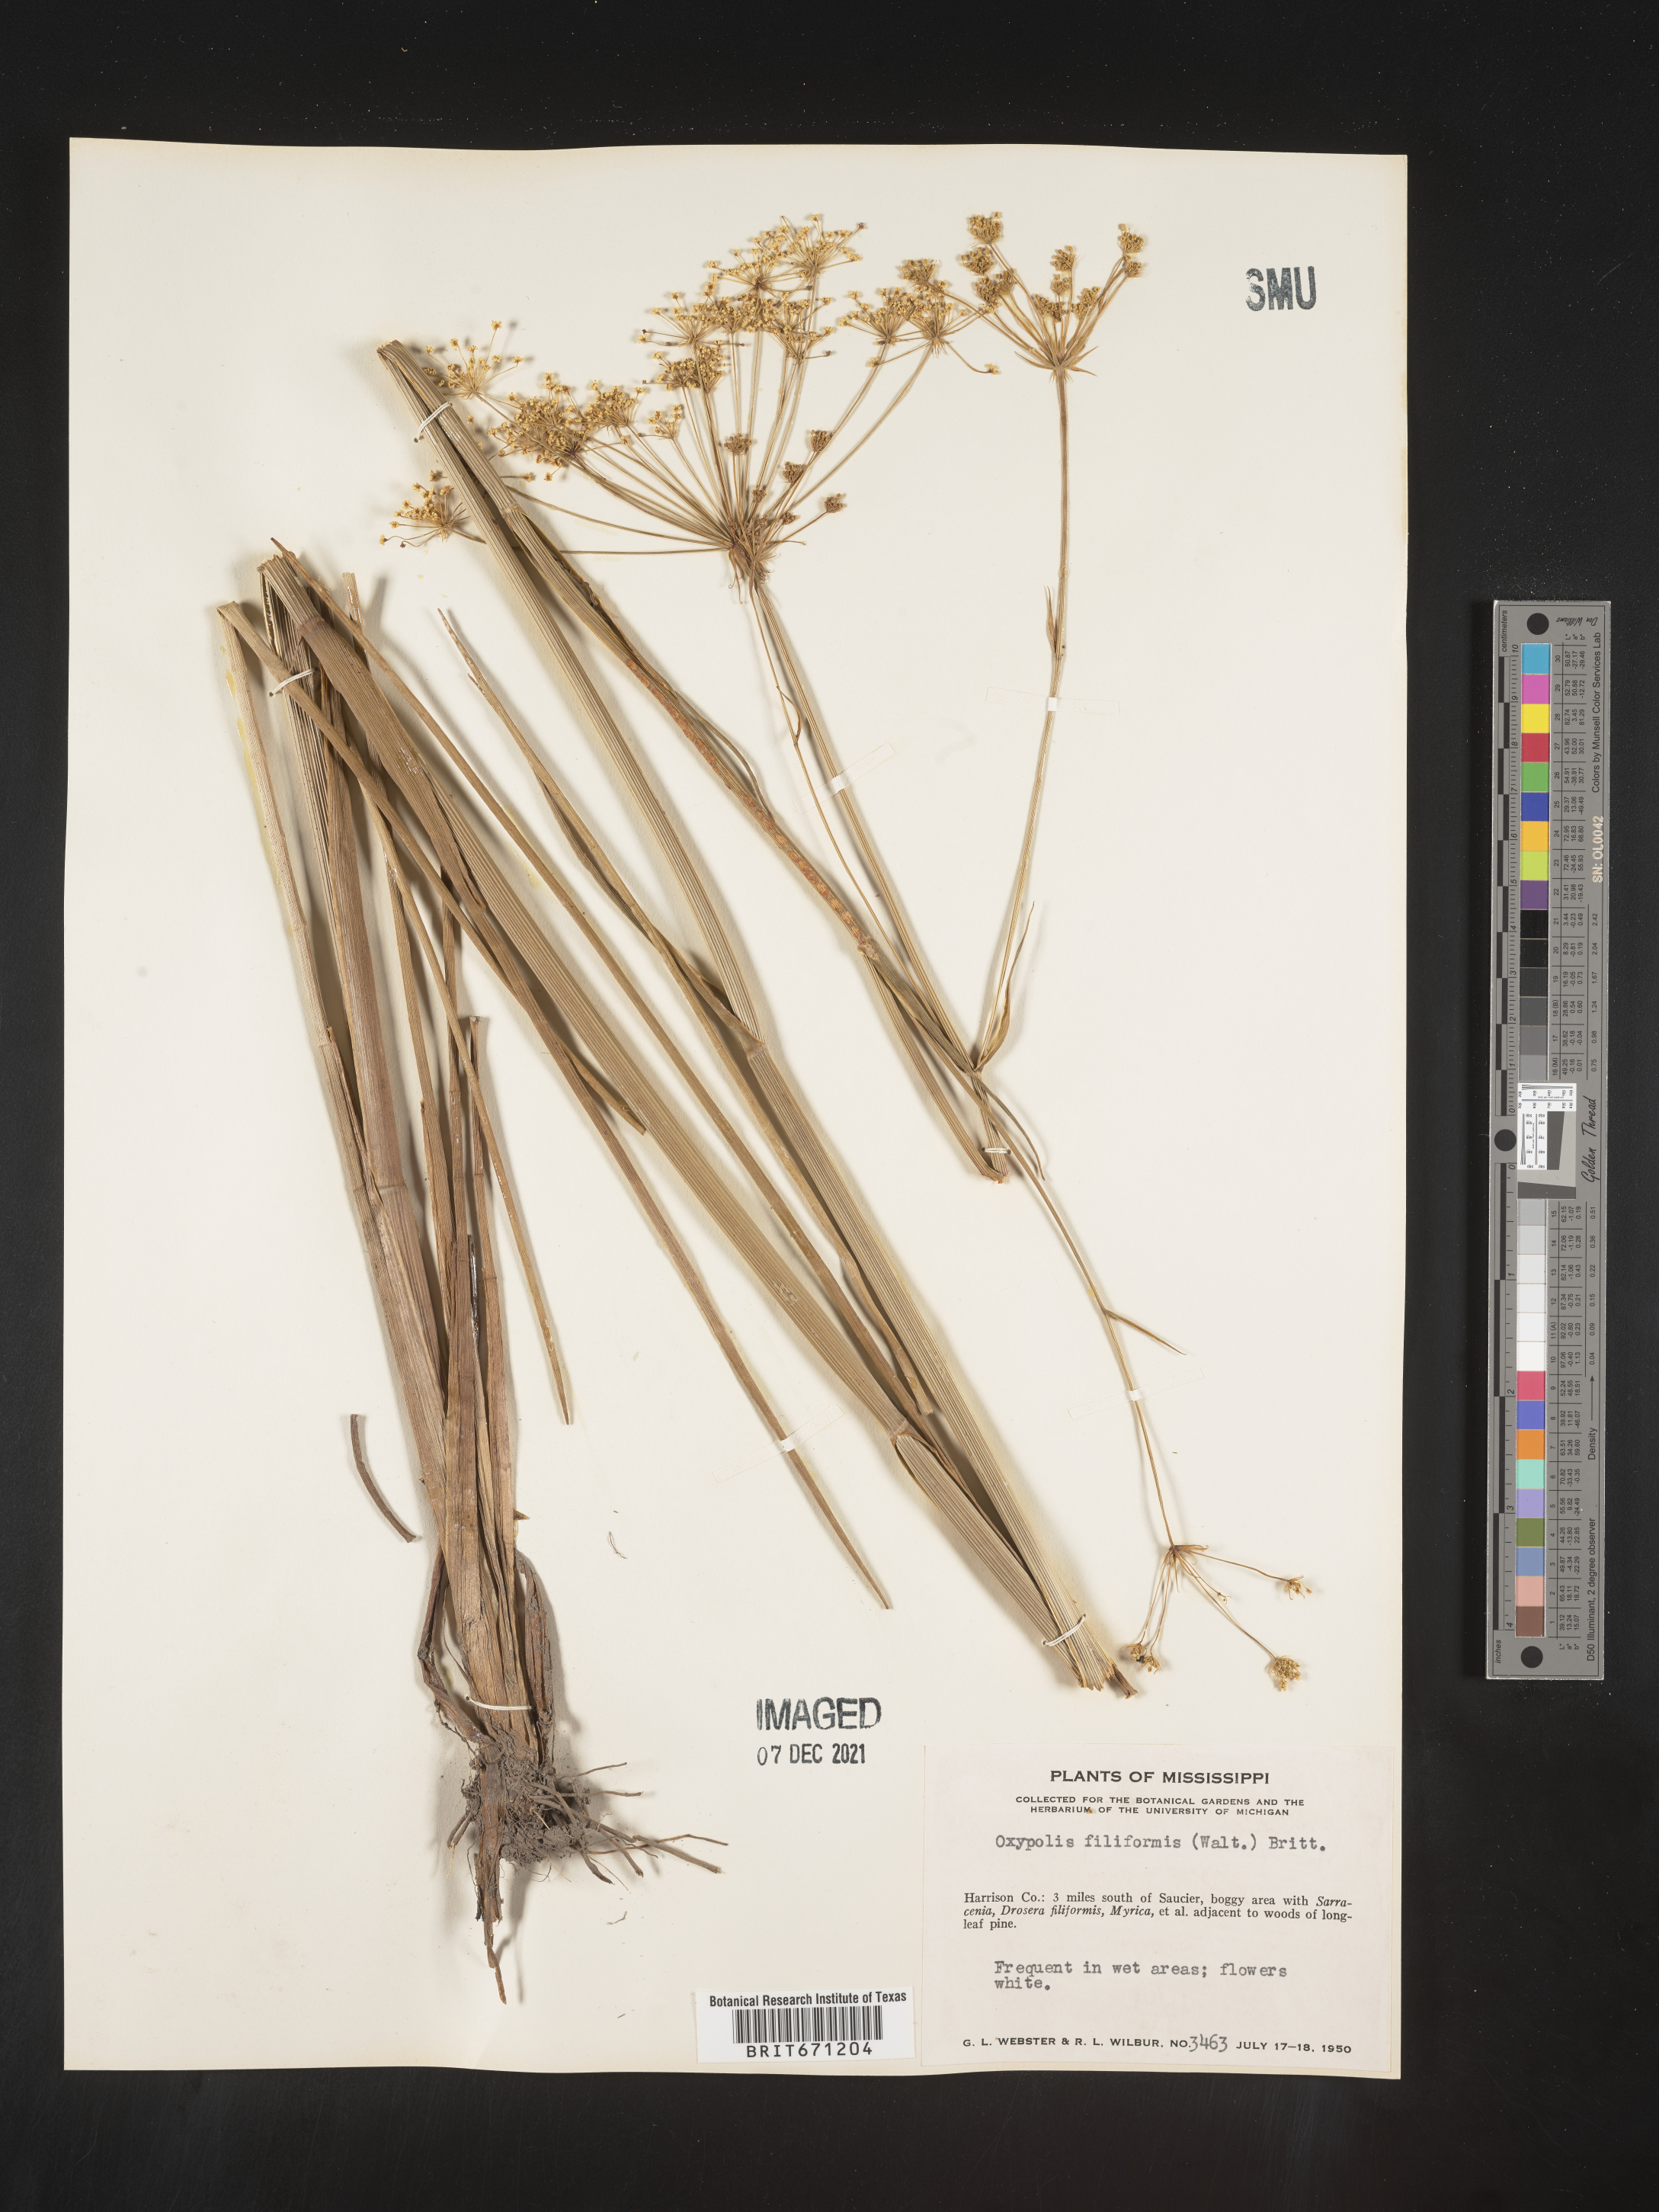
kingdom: Plantae
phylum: Tracheophyta
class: Magnoliopsida
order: Apiales
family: Apiaceae
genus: Tiedemannia
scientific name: Tiedemannia filiformis
